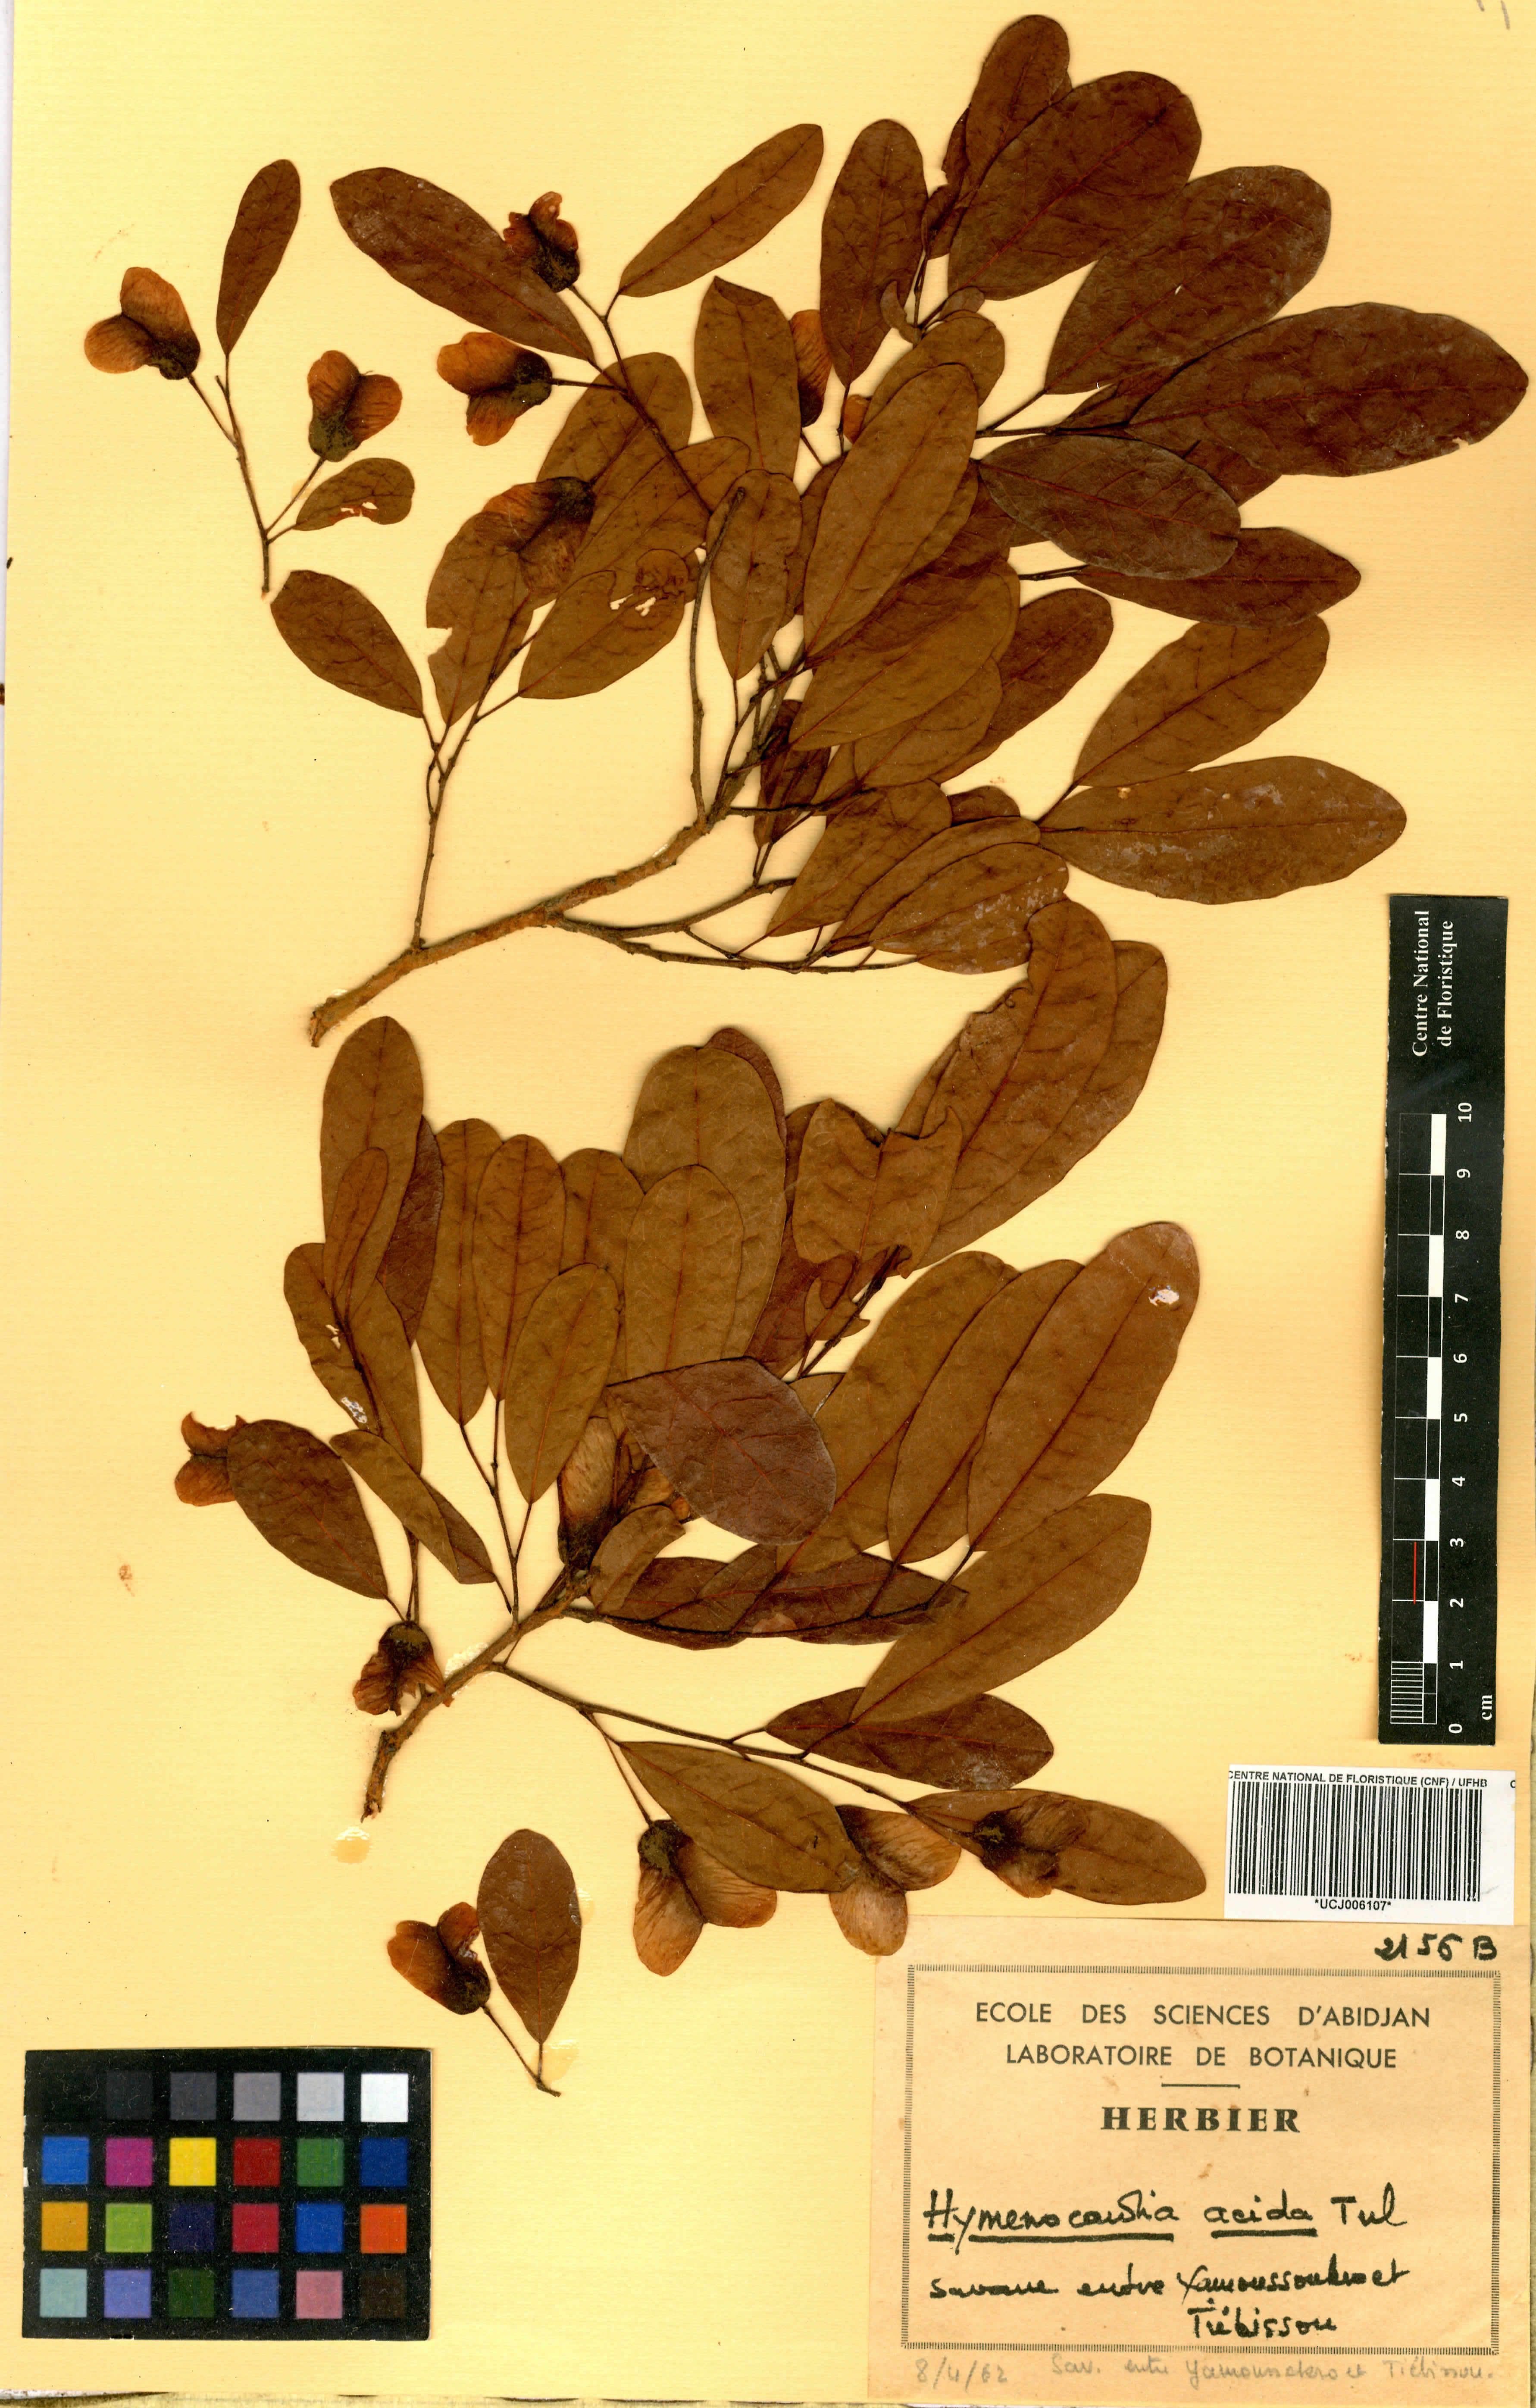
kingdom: Plantae
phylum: Tracheophyta
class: Magnoliopsida
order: Malpighiales
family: Phyllanthaceae
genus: Hymenocardia
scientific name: Hymenocardia acida
